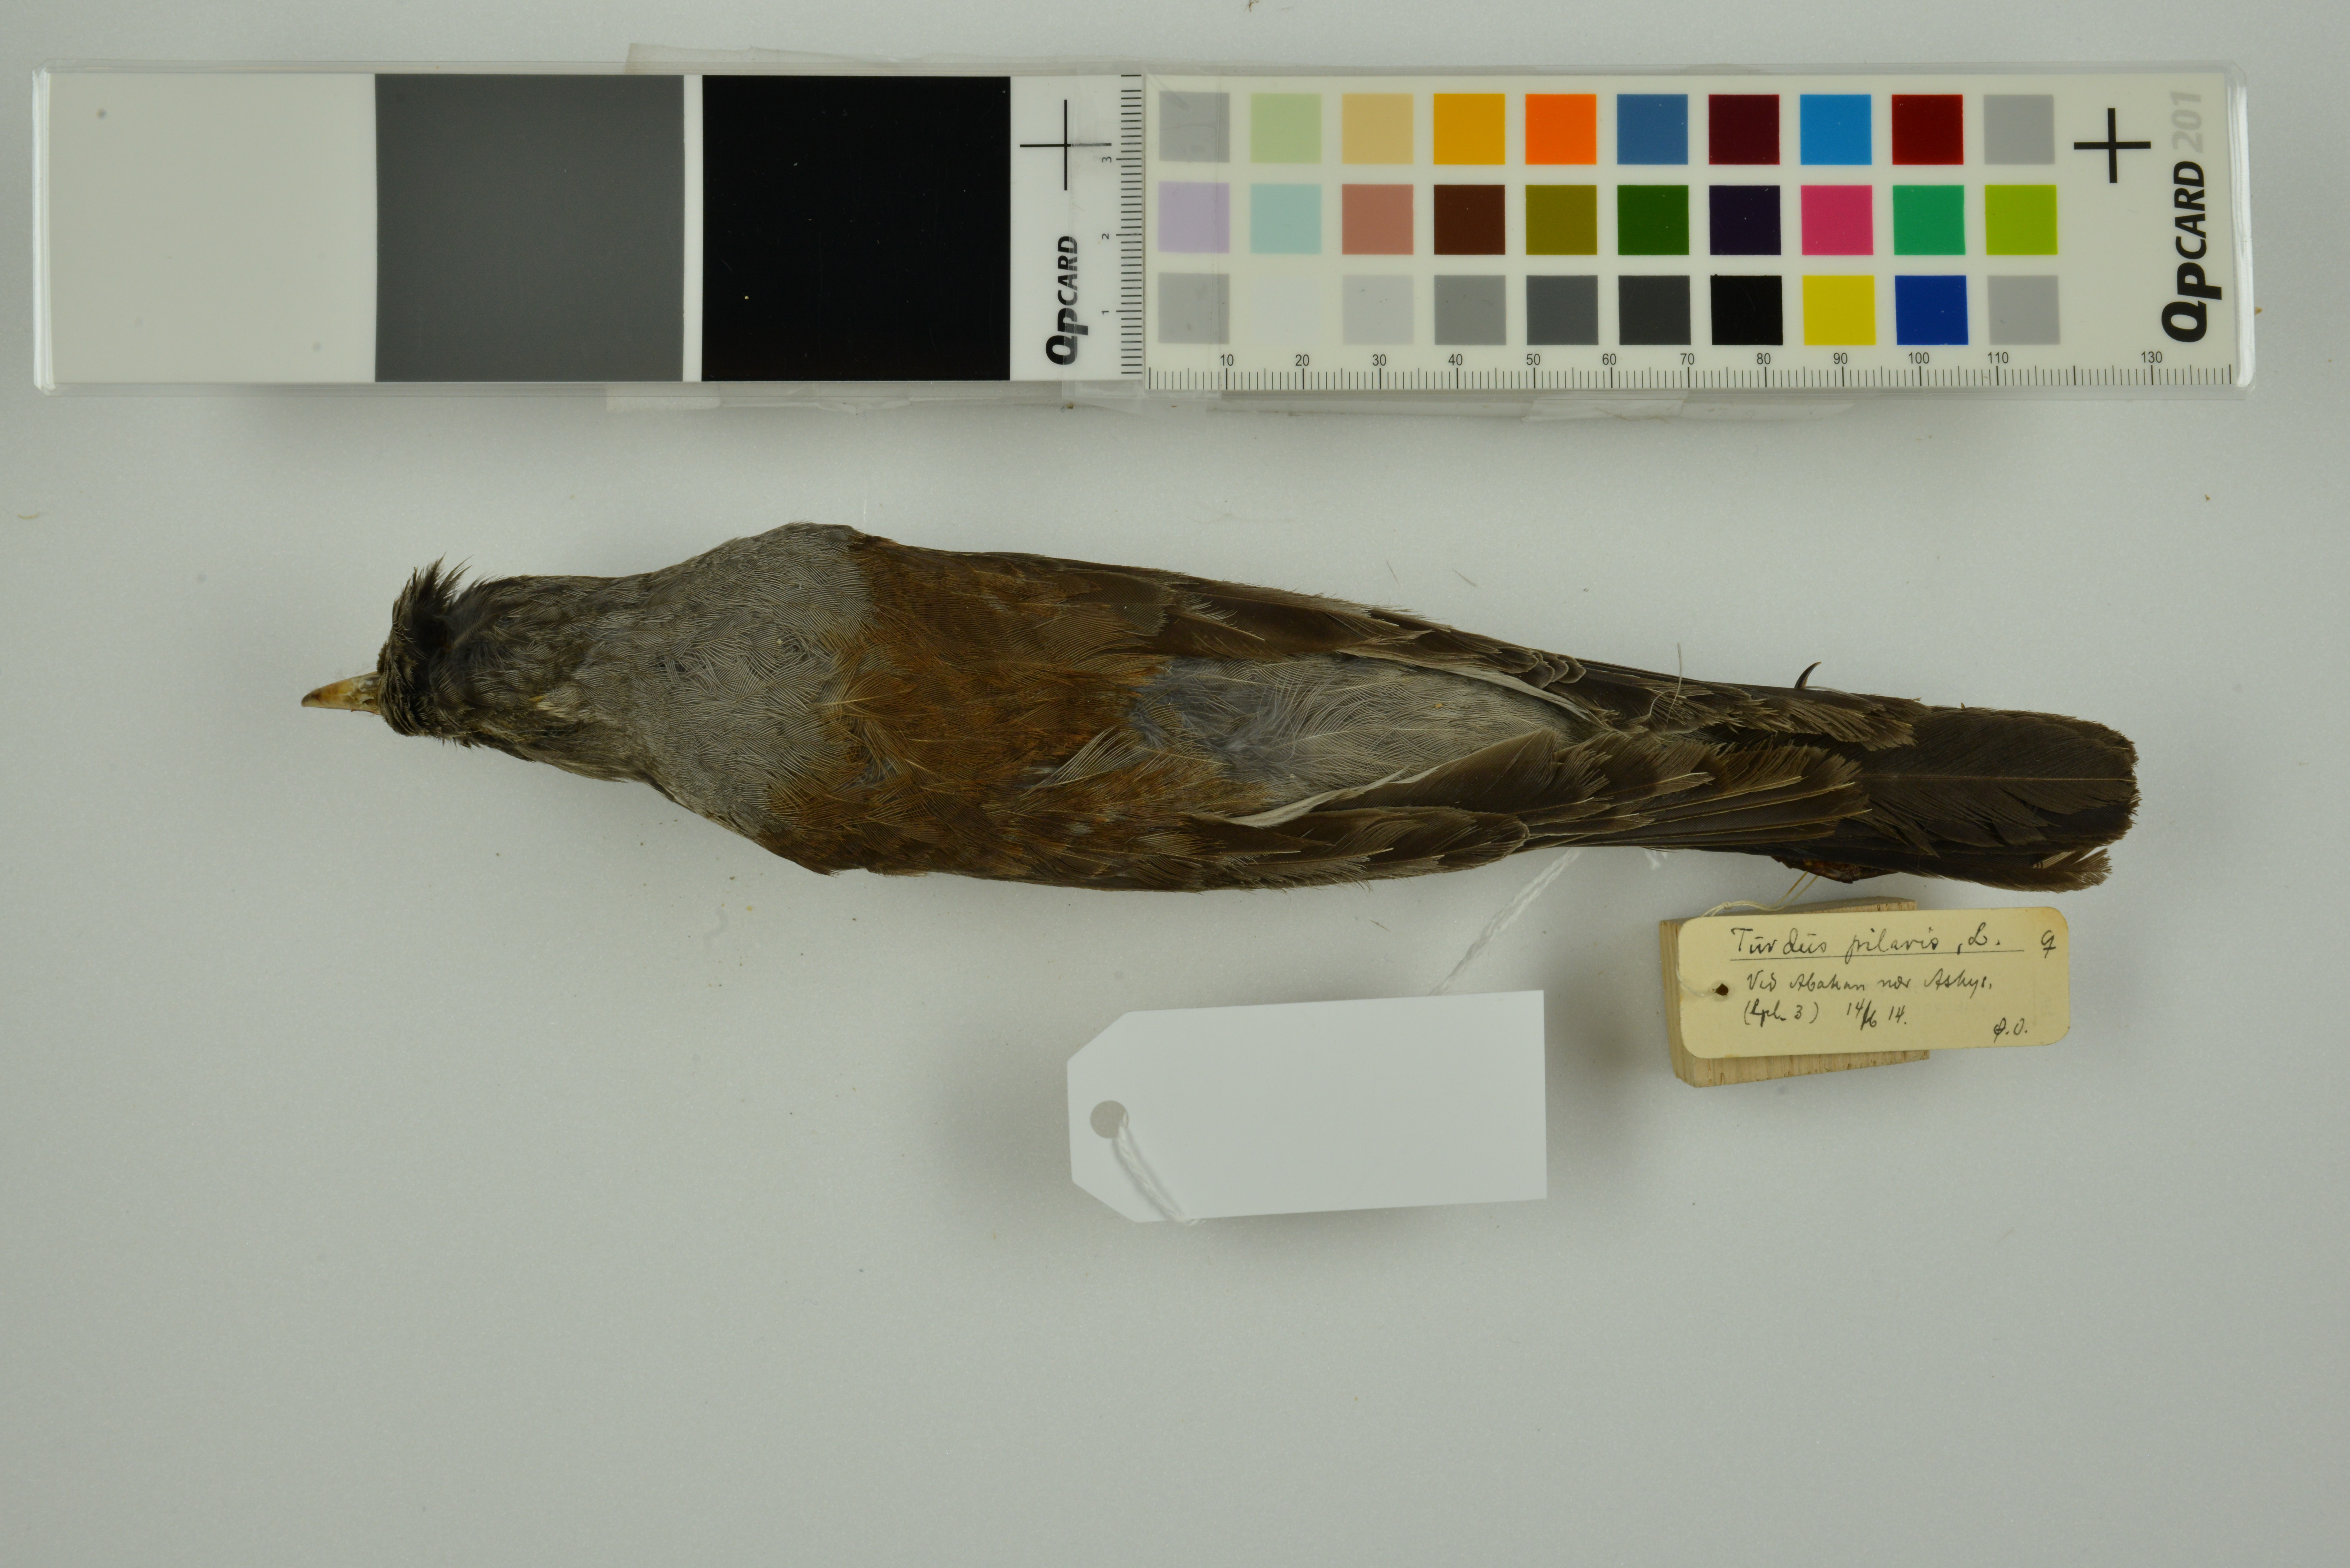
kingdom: Animalia
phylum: Chordata
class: Aves
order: Passeriformes
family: Turdidae
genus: Turdus
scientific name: Turdus pilaris
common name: Fieldfare
